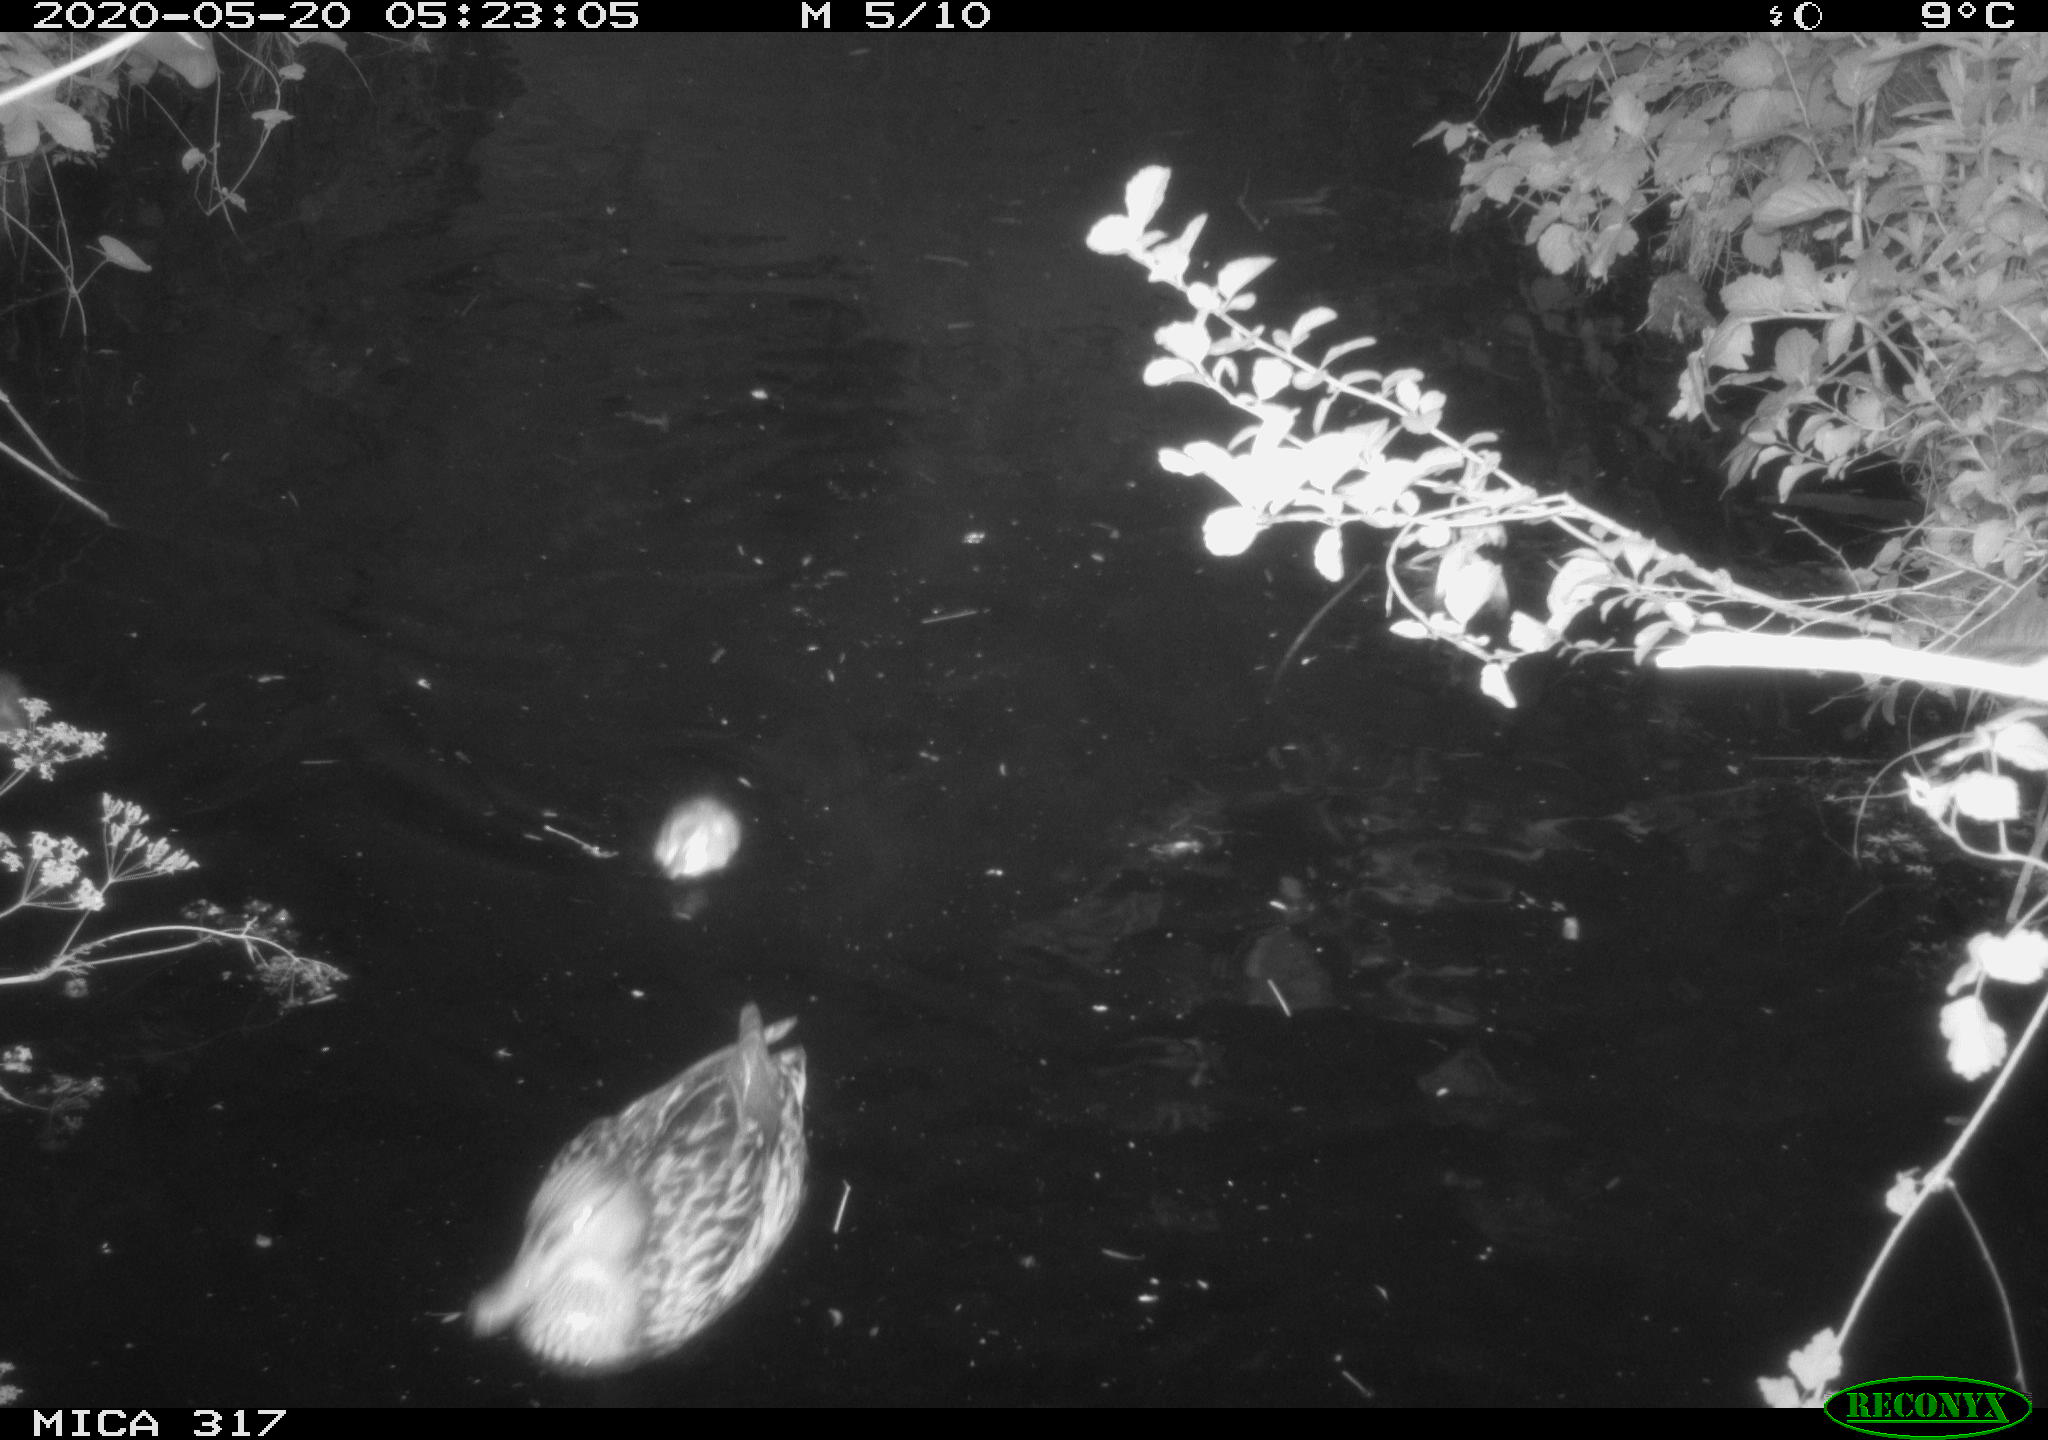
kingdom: Animalia
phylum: Chordata
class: Aves
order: Anseriformes
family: Anatidae
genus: Anas
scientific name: Anas platyrhynchos
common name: Mallard
